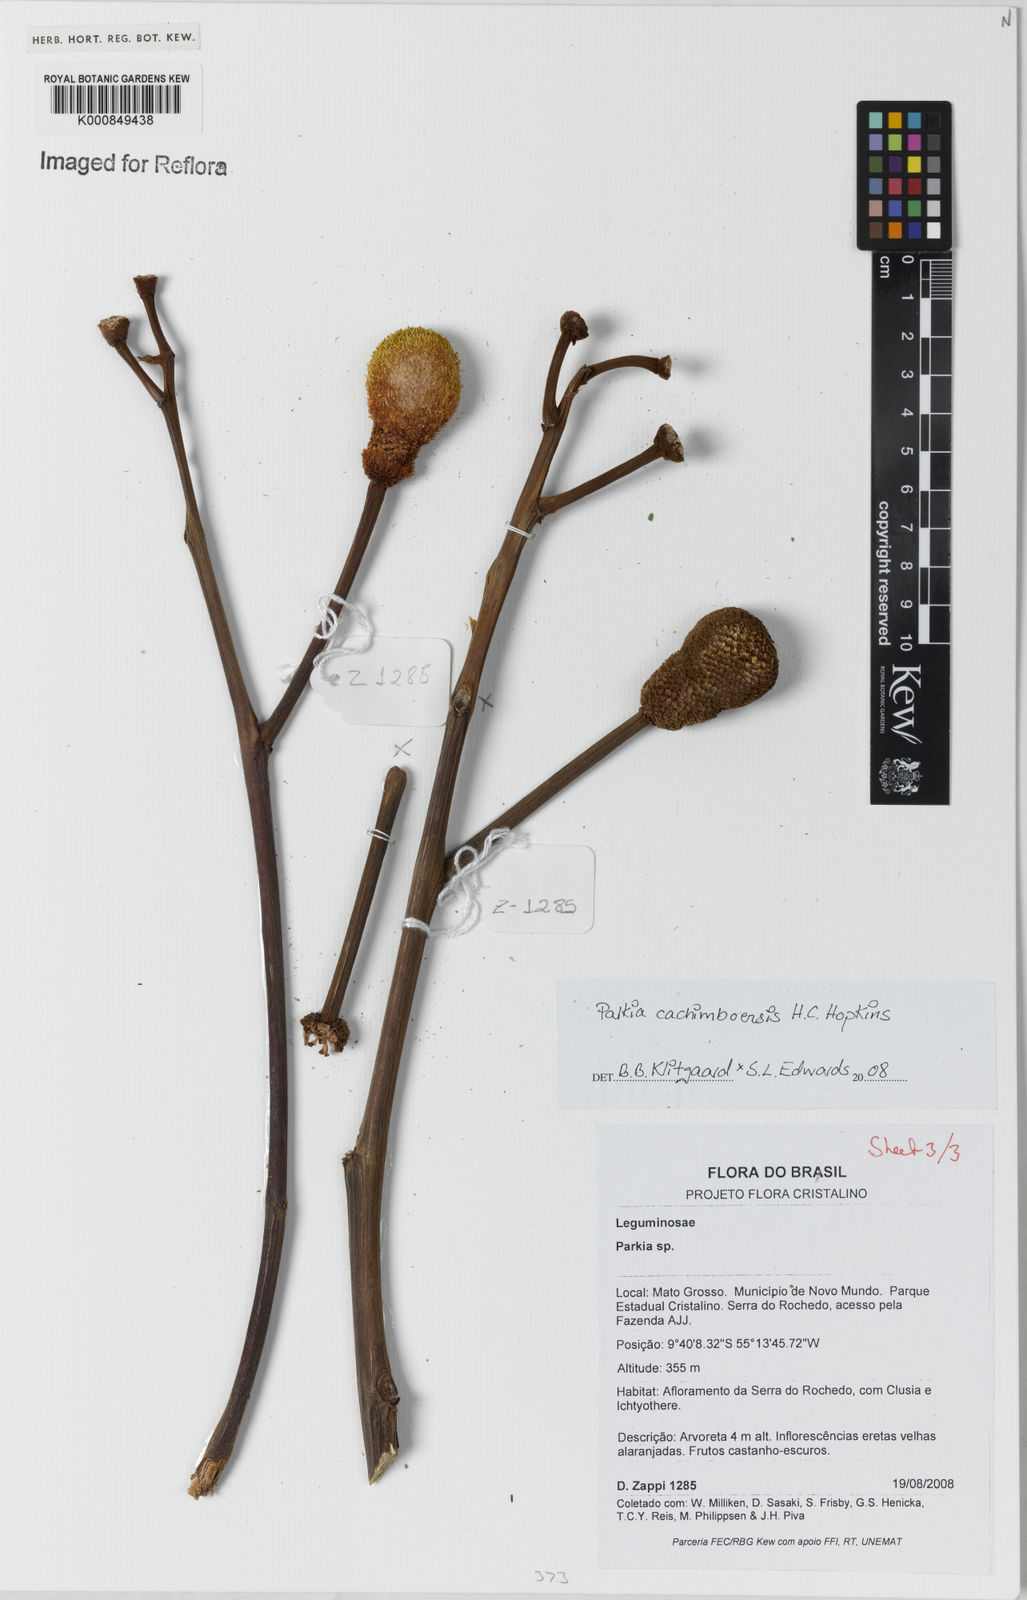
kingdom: Plantae
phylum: Tracheophyta
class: Magnoliopsida
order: Fabales
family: Fabaceae
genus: Parkia
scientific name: Parkia cachimboensis
